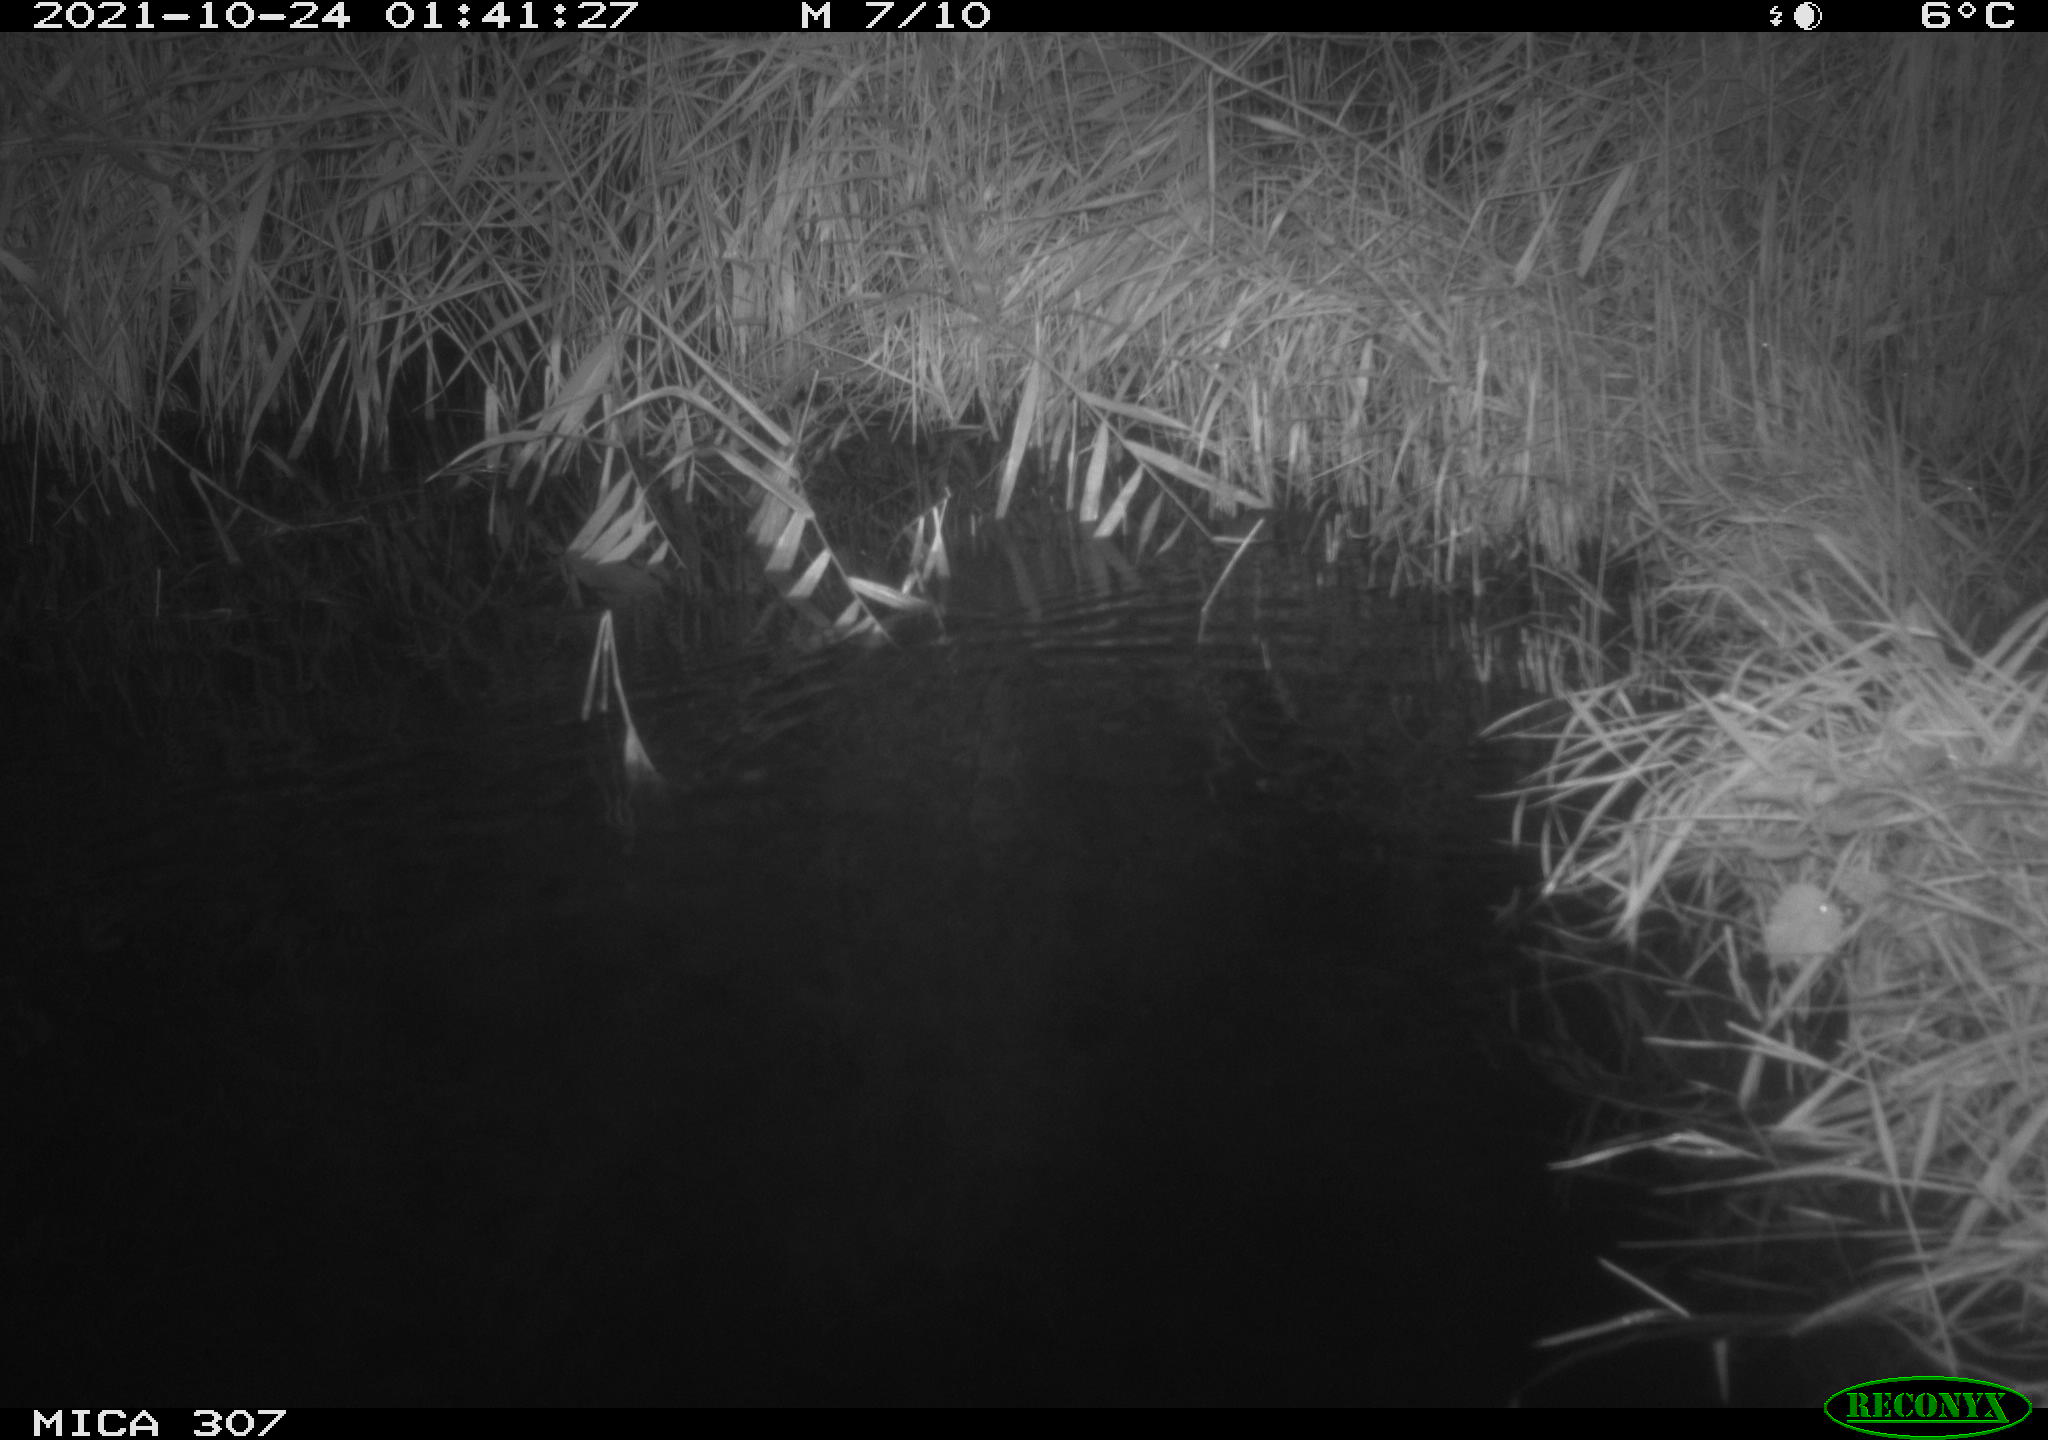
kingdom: Animalia
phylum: Chordata
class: Mammalia
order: Rodentia
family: Muridae
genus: Rattus
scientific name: Rattus norvegicus
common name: Brown rat
